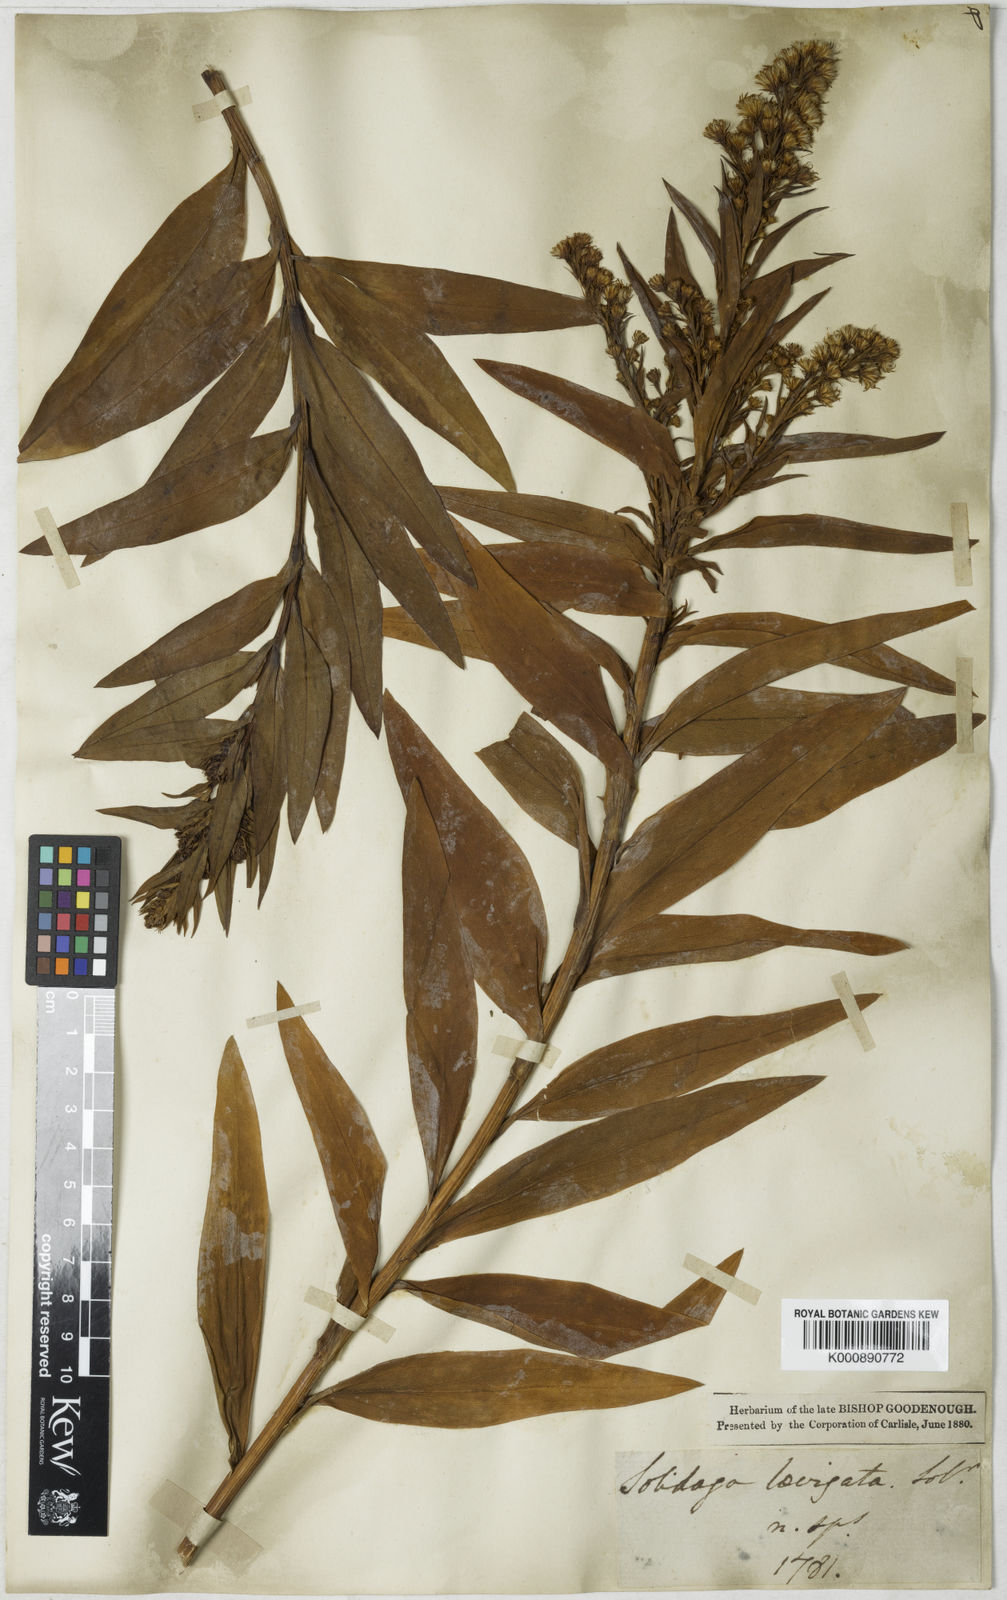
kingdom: Plantae
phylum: Tracheophyta
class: Magnoliopsida
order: Asterales
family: Asteraceae
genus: Solidago
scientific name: Solidago sempervirens
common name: Salt-marsh goldenrod
